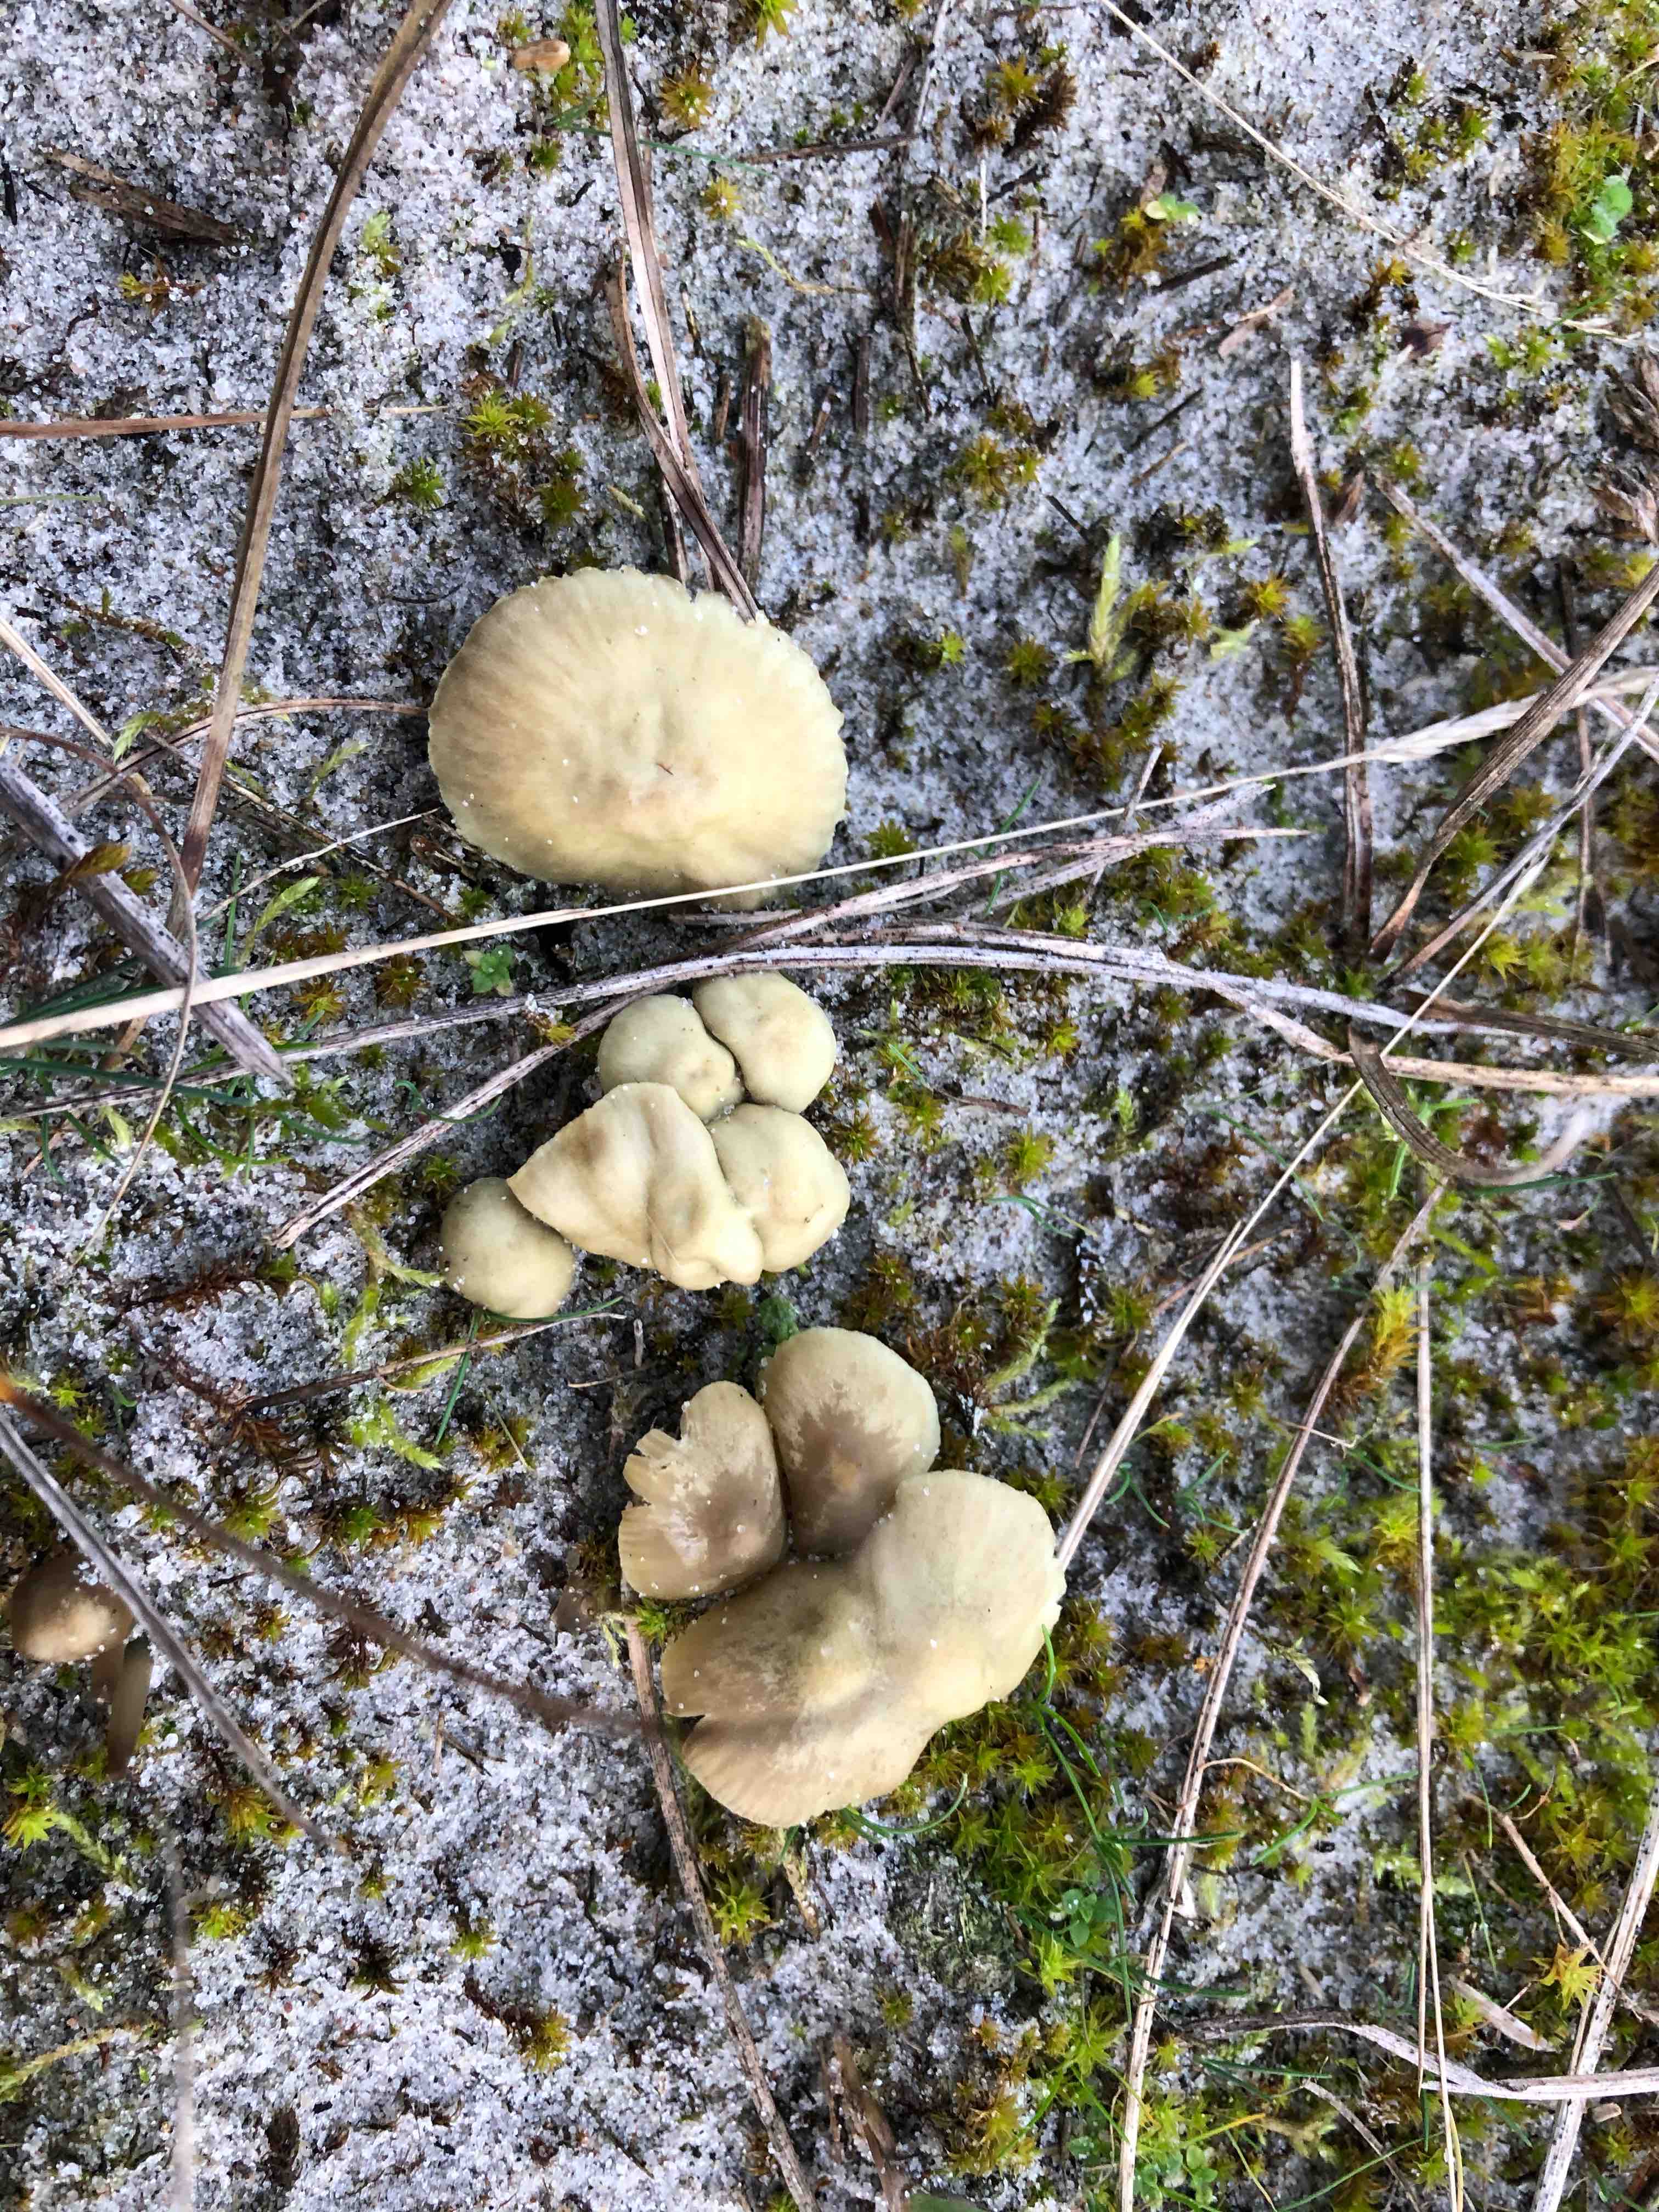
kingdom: Fungi
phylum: Basidiomycota
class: Agaricomycetes
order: Agaricales
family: Mycenaceae
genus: Mycena
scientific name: Mycena chlorantha
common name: klit-huesvamp
